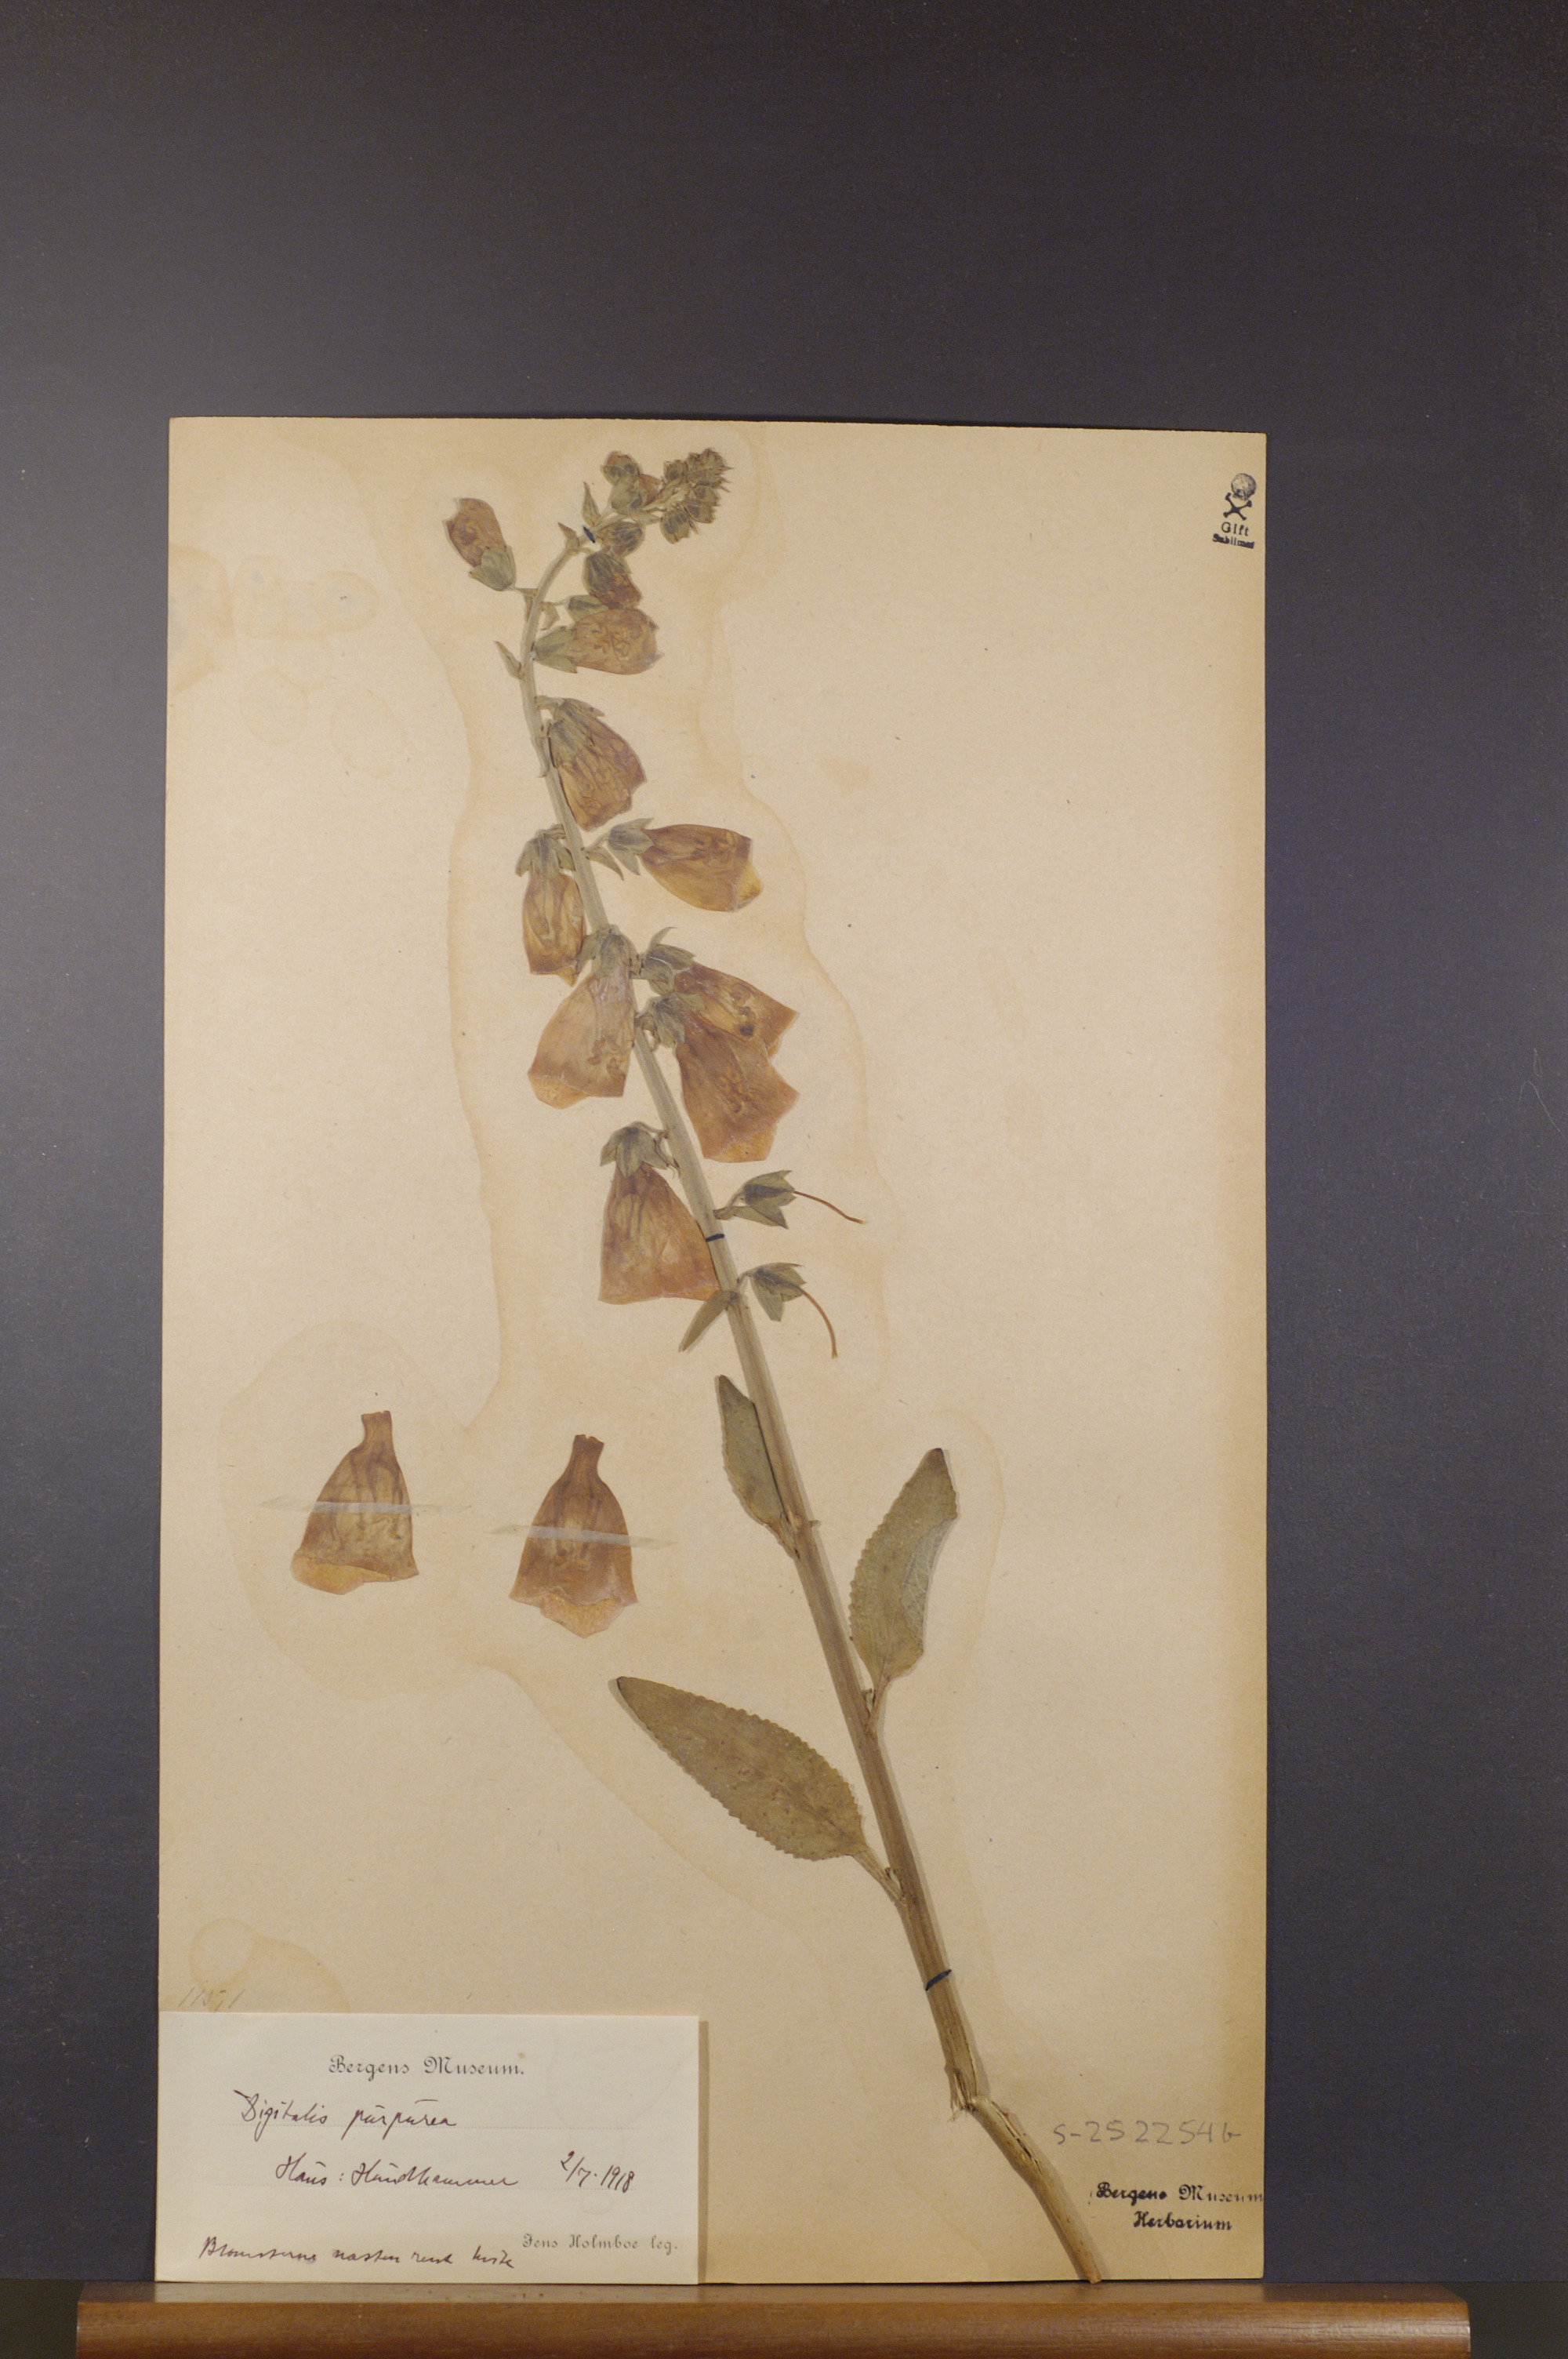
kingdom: Plantae
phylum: Tracheophyta
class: Magnoliopsida
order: Lamiales
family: Plantaginaceae
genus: Digitalis
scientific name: Digitalis purpurea
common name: Foxglove
